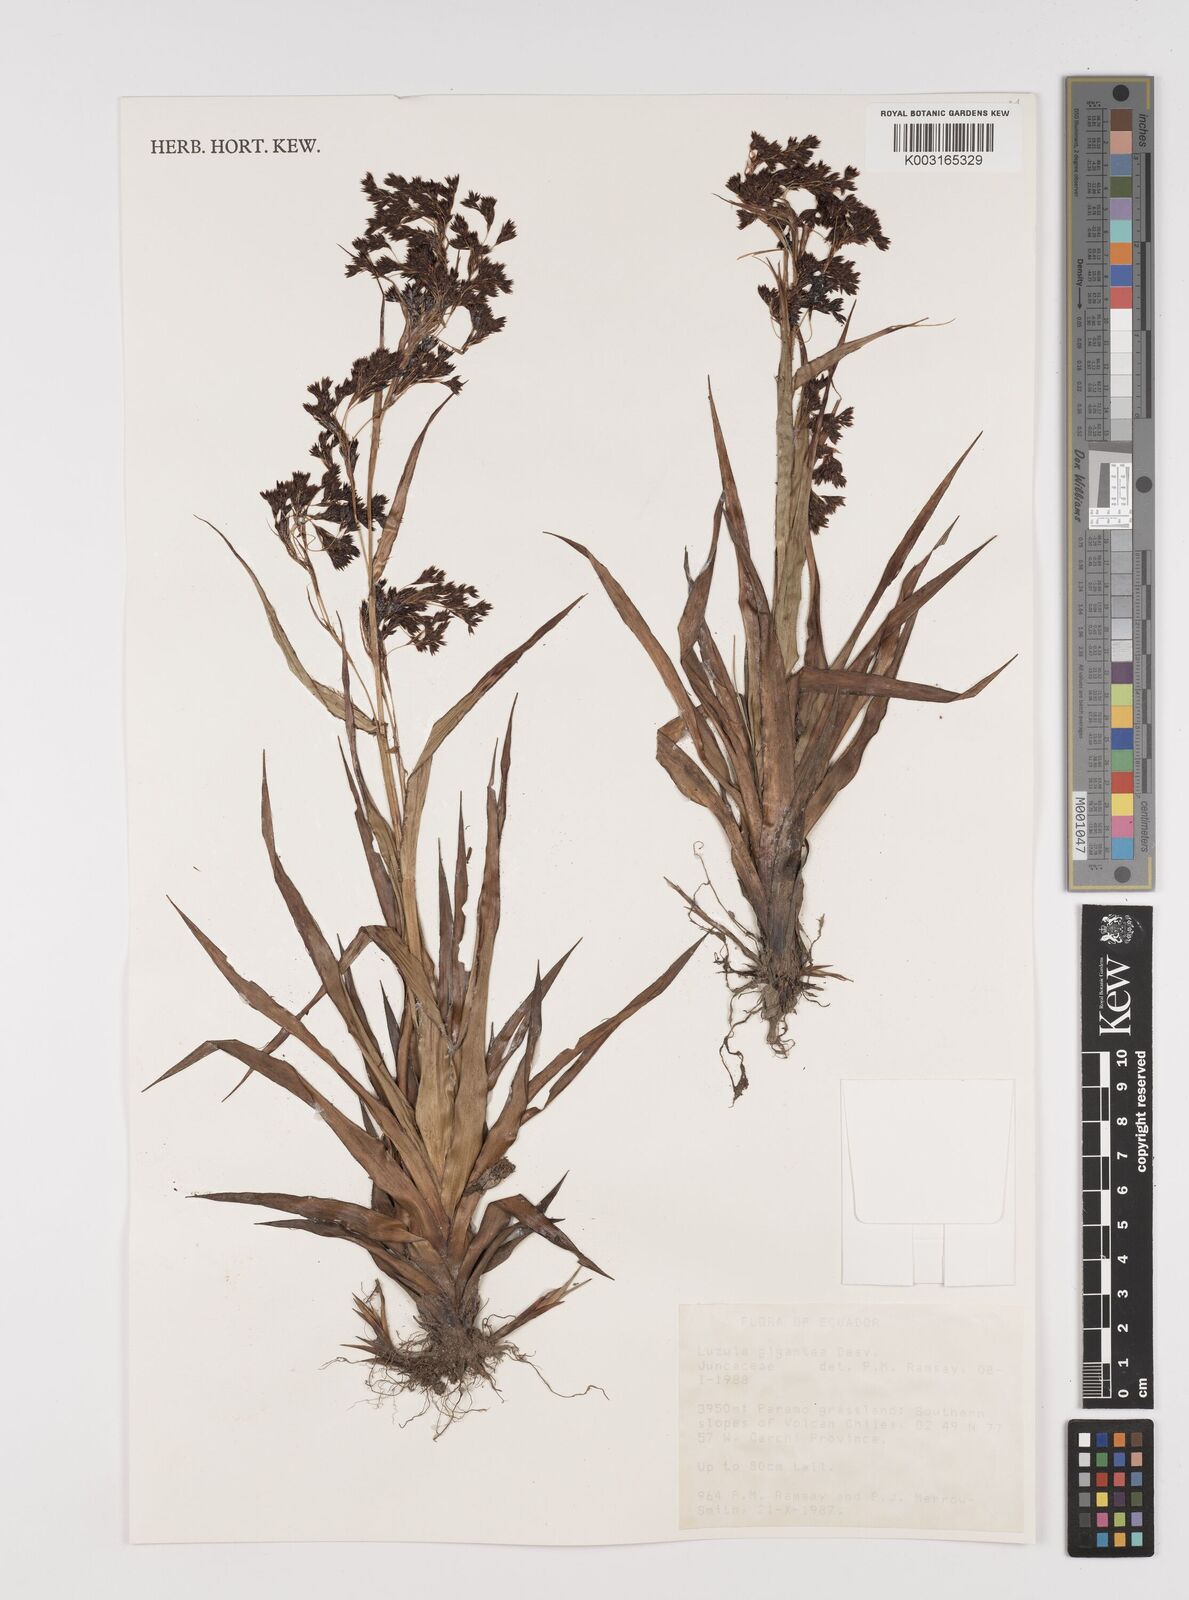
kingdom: Plantae
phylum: Tracheophyta
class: Liliopsida
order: Poales
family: Juncaceae
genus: Luzula
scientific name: Luzula gigantea
